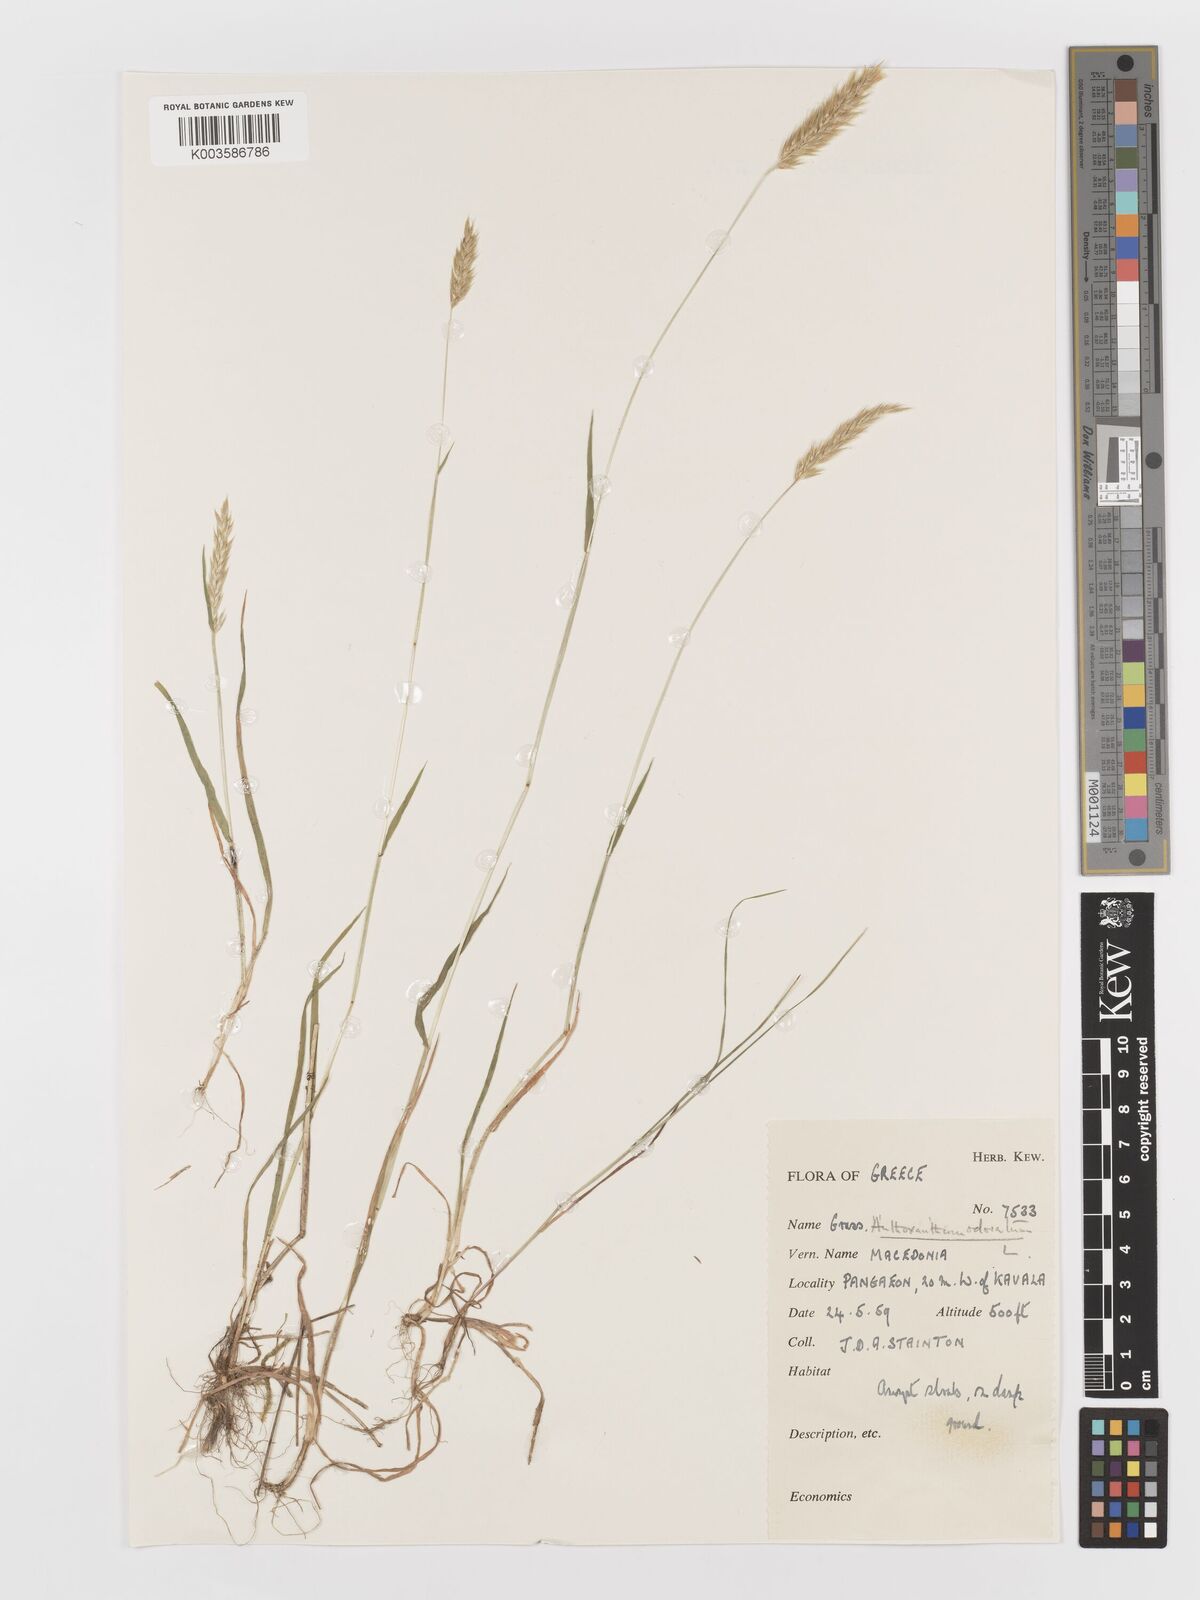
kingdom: Plantae
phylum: Tracheophyta
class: Liliopsida
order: Poales
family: Poaceae
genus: Anthoxanthum
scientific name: Anthoxanthum odoratum
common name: Sweet vernalgrass
